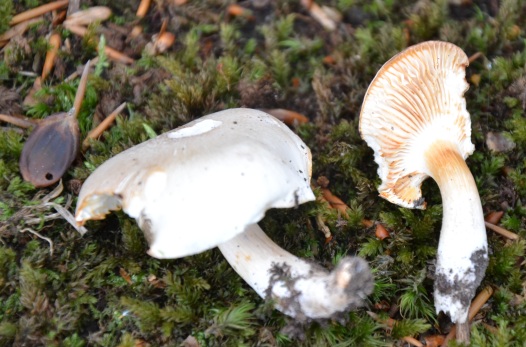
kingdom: Fungi
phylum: Basidiomycota
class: Agaricomycetes
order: Agaricales
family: Tricholomataceae
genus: Tricholoma
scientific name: Tricholoma
